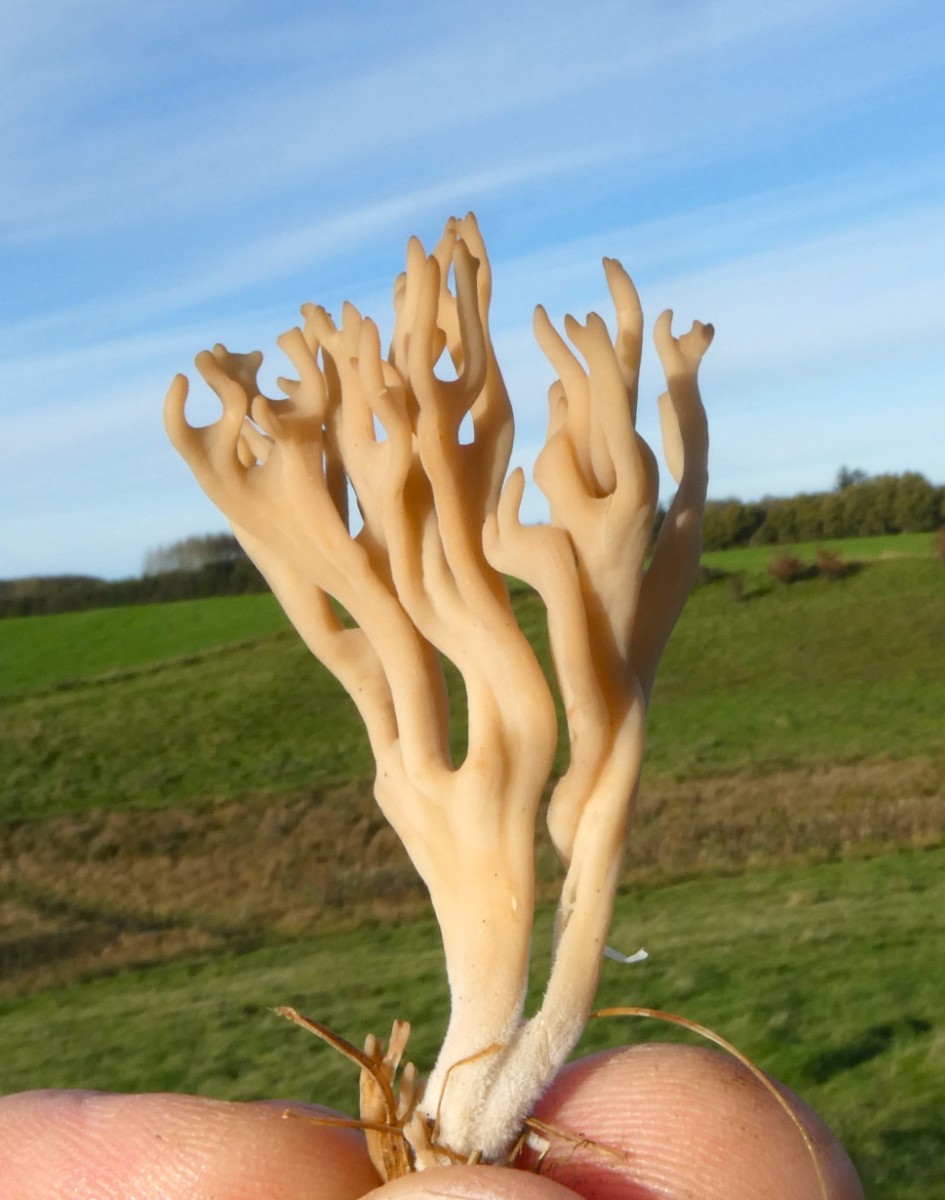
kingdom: Fungi
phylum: Basidiomycota
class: Agaricomycetes
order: Agaricales
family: Clavariaceae
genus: Clavulinopsis
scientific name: Clavulinopsis umbrinella
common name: gulgrå køllesvamp
